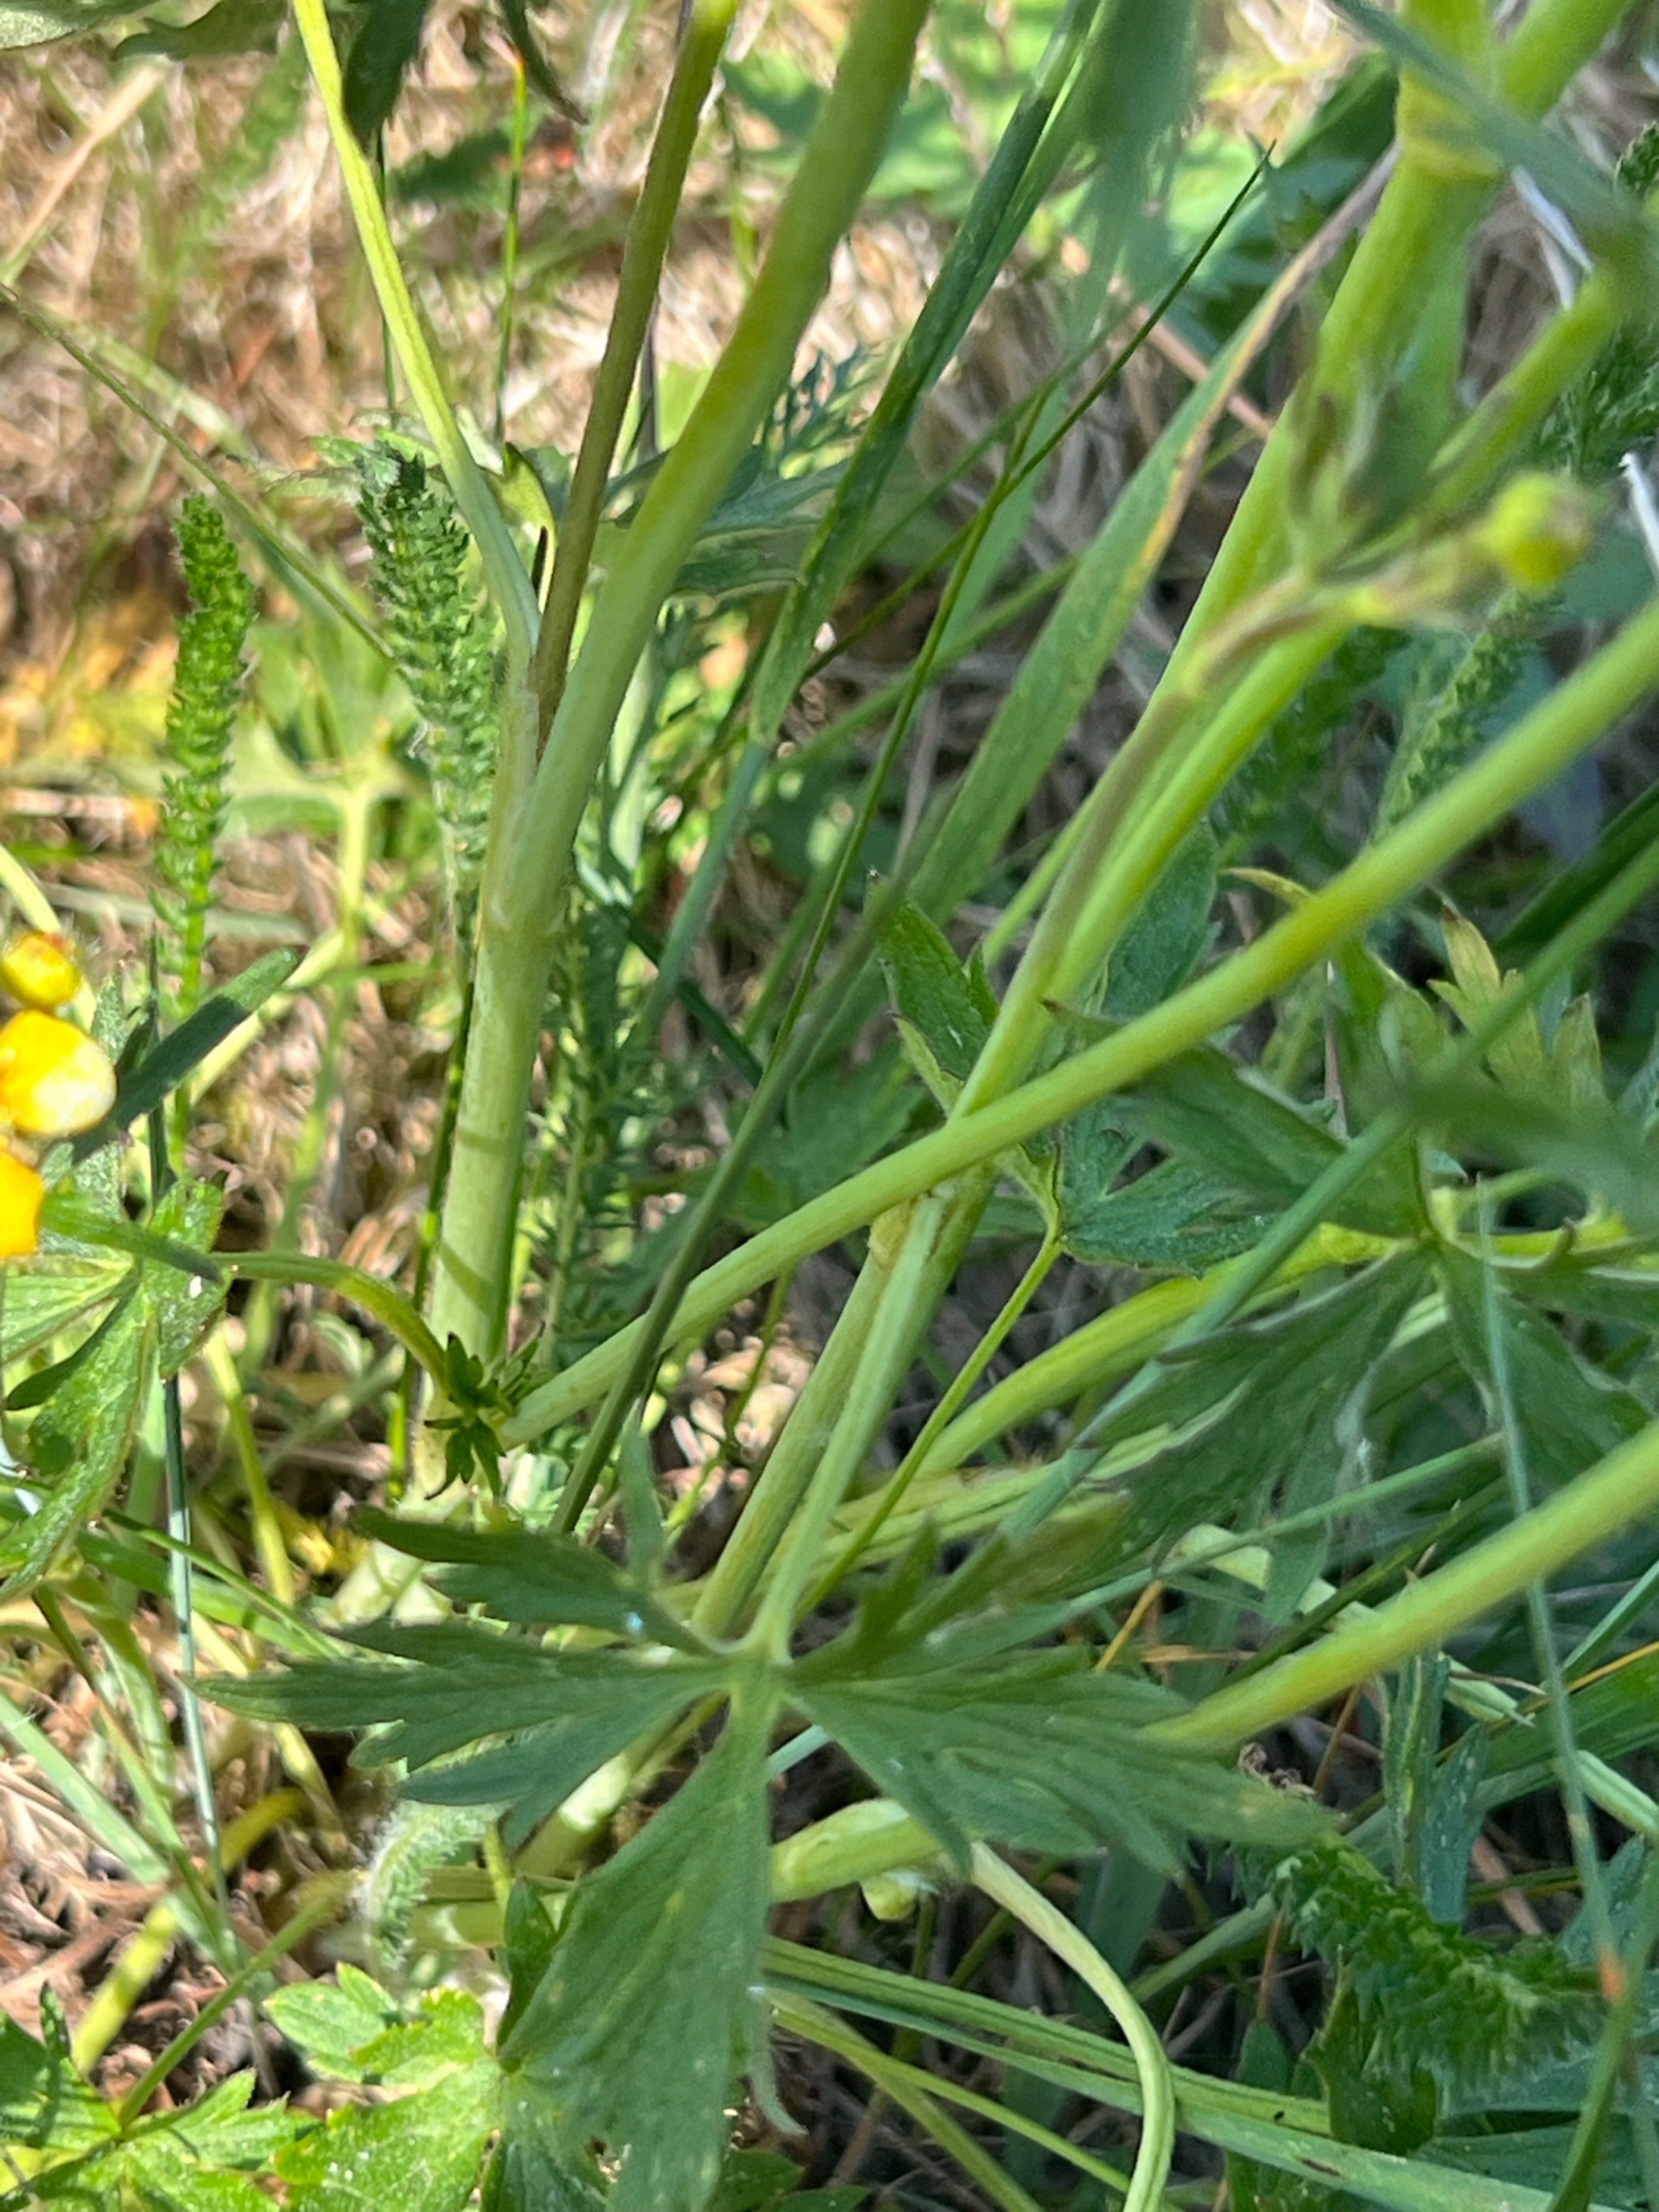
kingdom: Plantae
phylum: Tracheophyta
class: Magnoliopsida
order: Ranunculales
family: Ranunculaceae
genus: Ranunculus
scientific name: Ranunculus acris
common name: Bidende ranunkel
